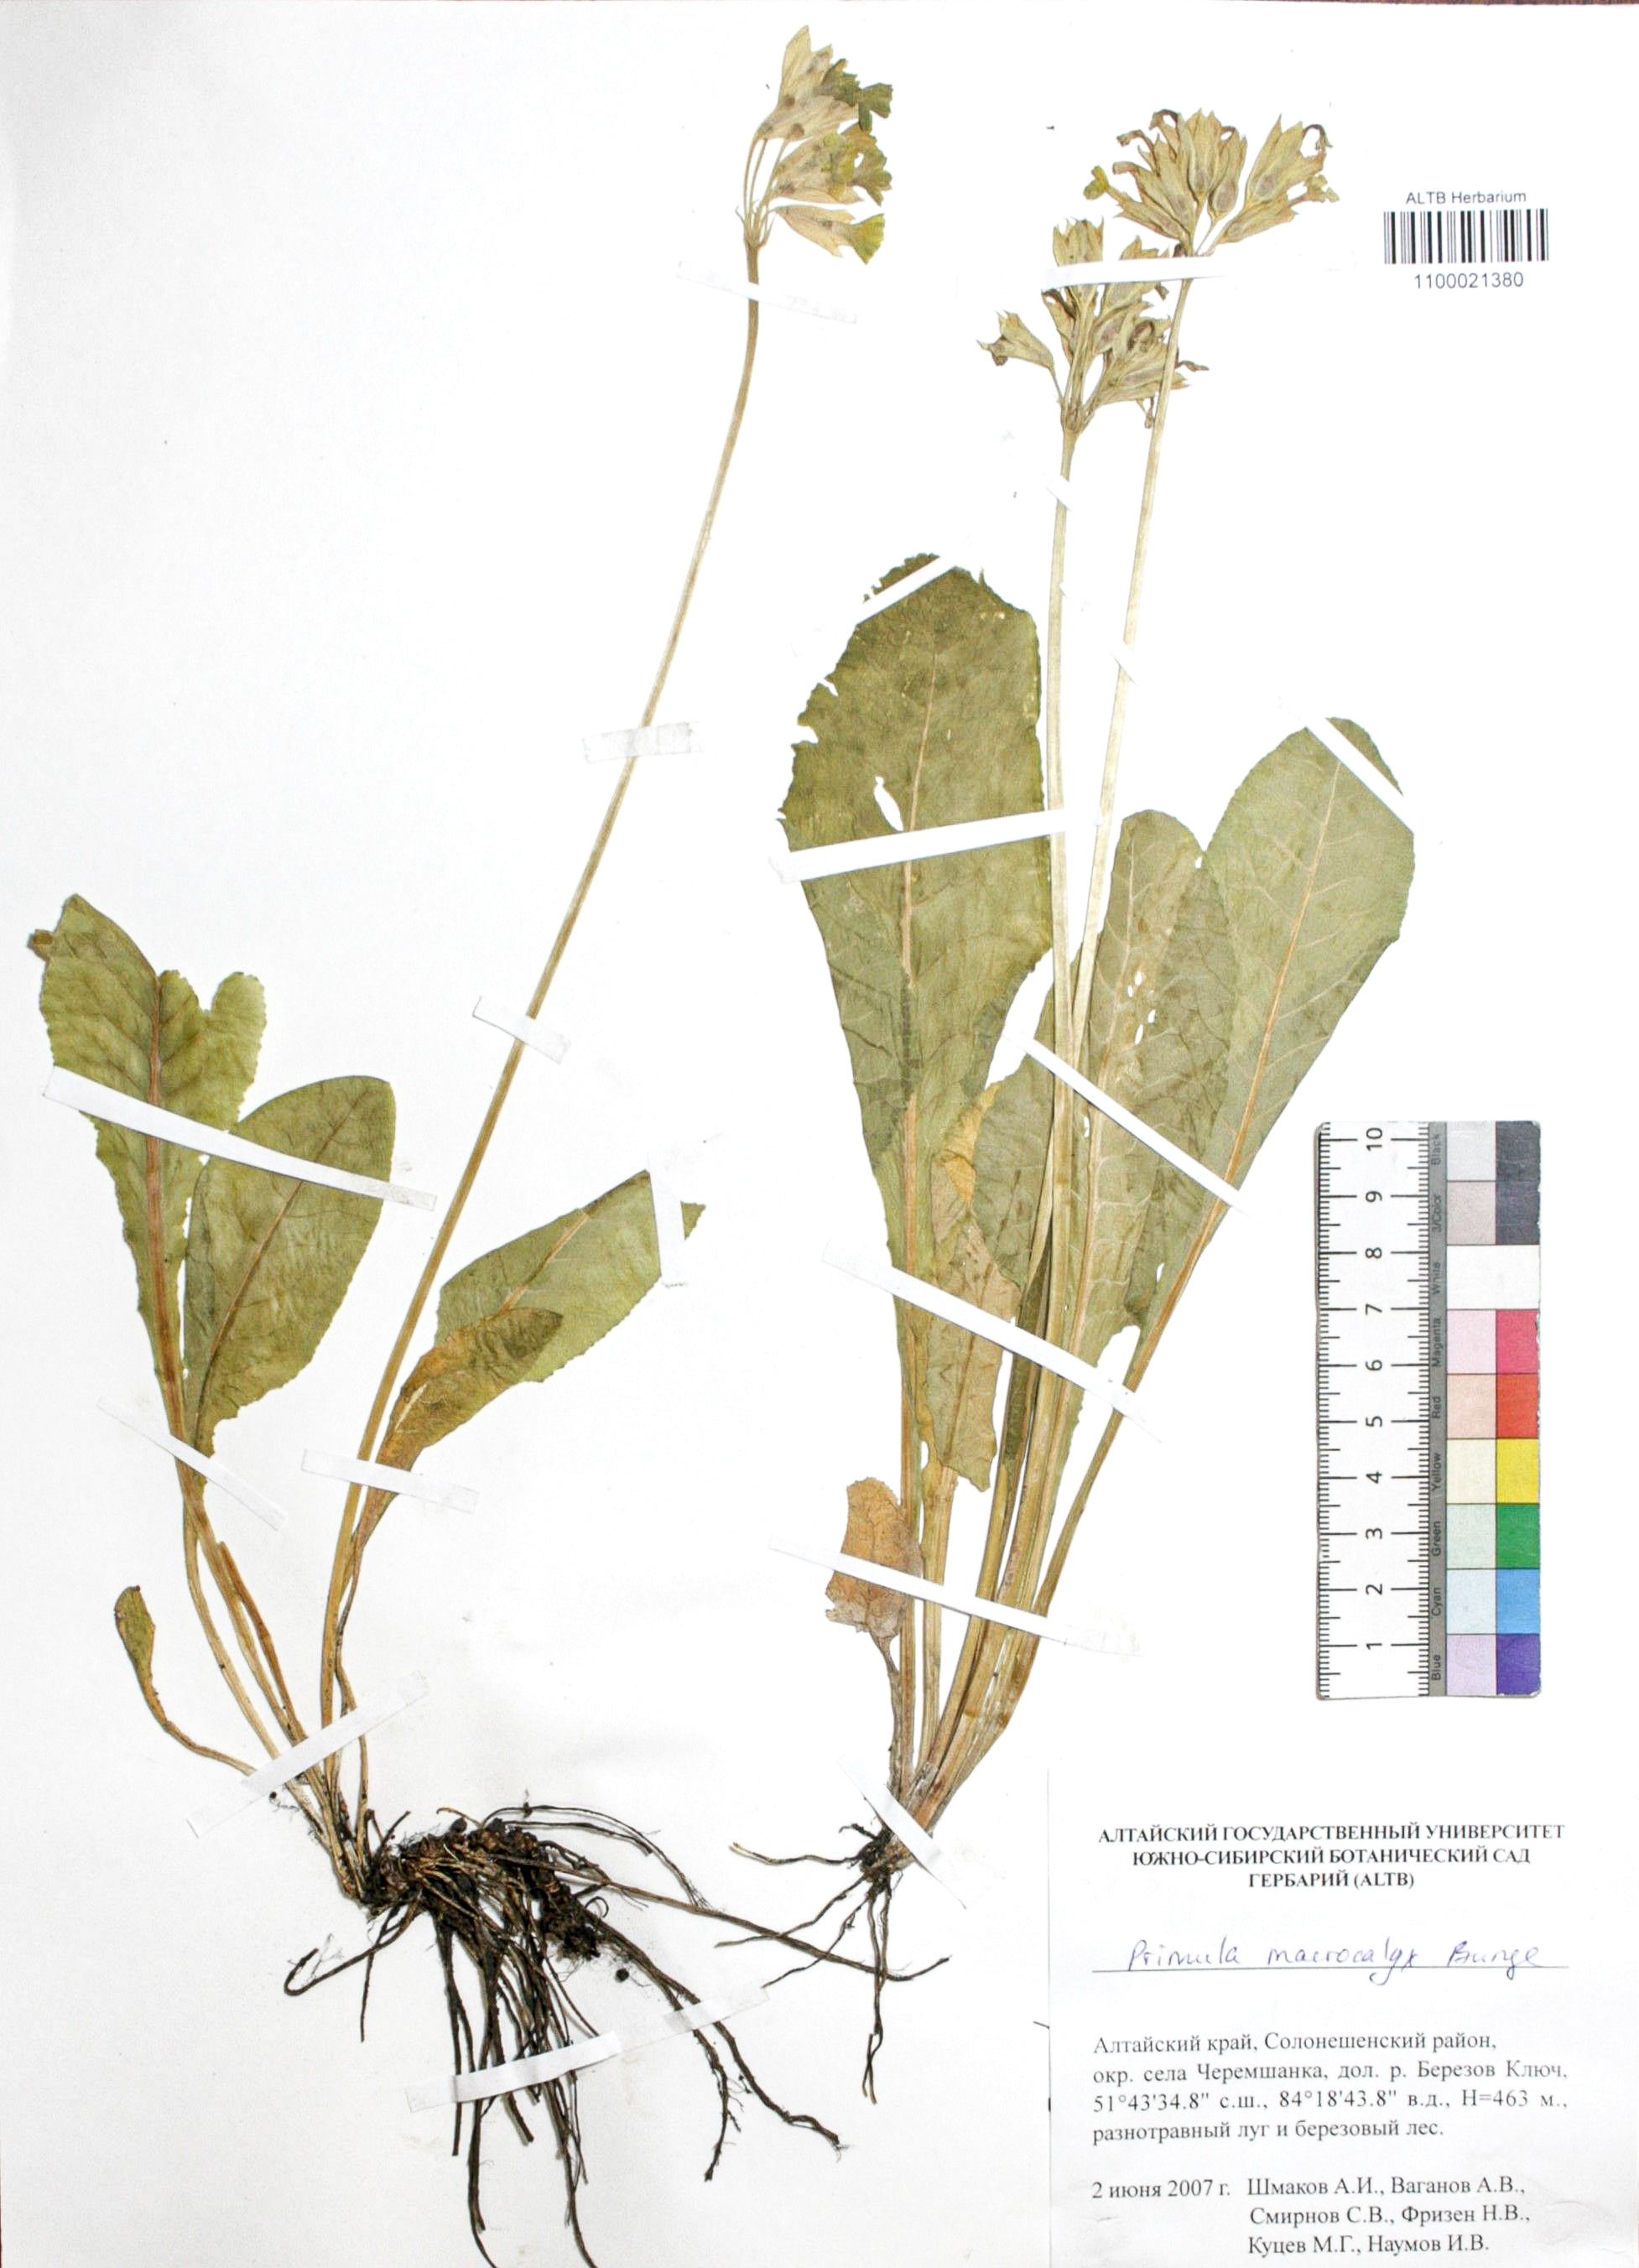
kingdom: Plantae
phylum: Tracheophyta
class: Magnoliopsida
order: Ericales
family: Primulaceae
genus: Primula
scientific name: Primula veris
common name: Cowslip
